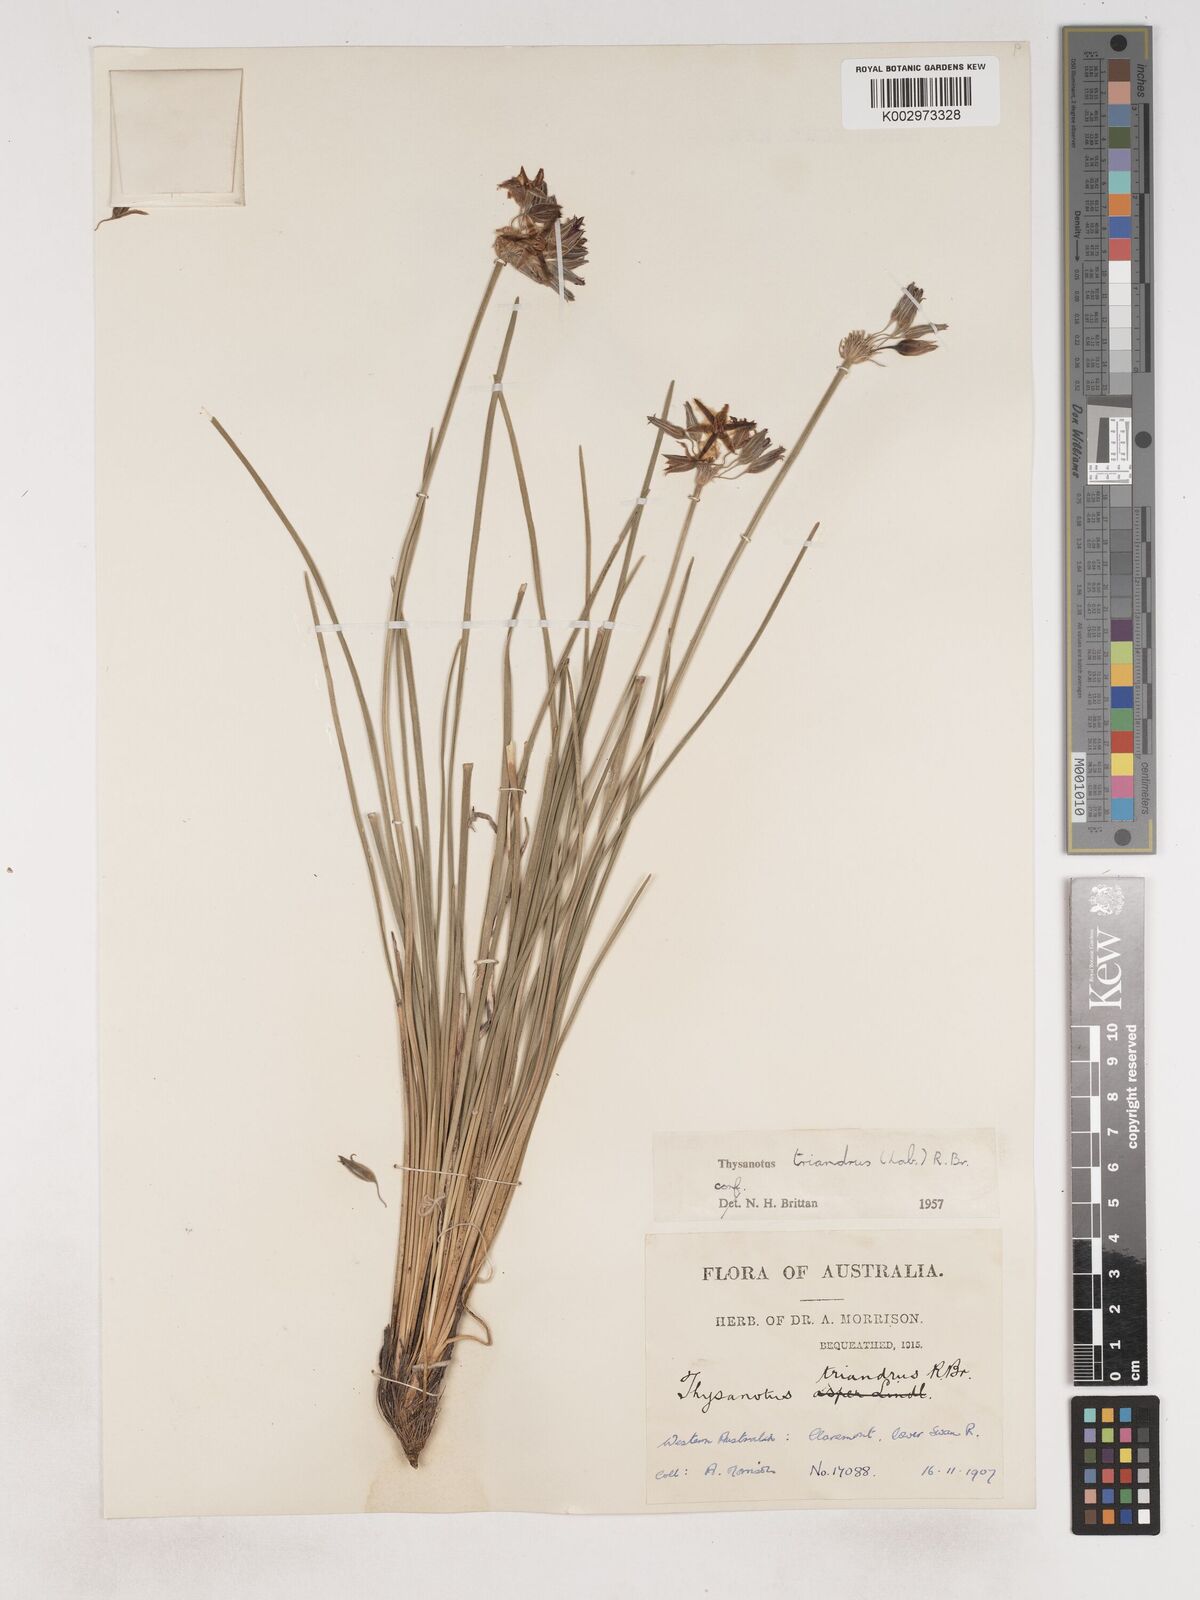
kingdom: Plantae
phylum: Tracheophyta
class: Liliopsida
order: Asparagales
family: Asparagaceae
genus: Thysanotus
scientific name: Thysanotus triandrus
